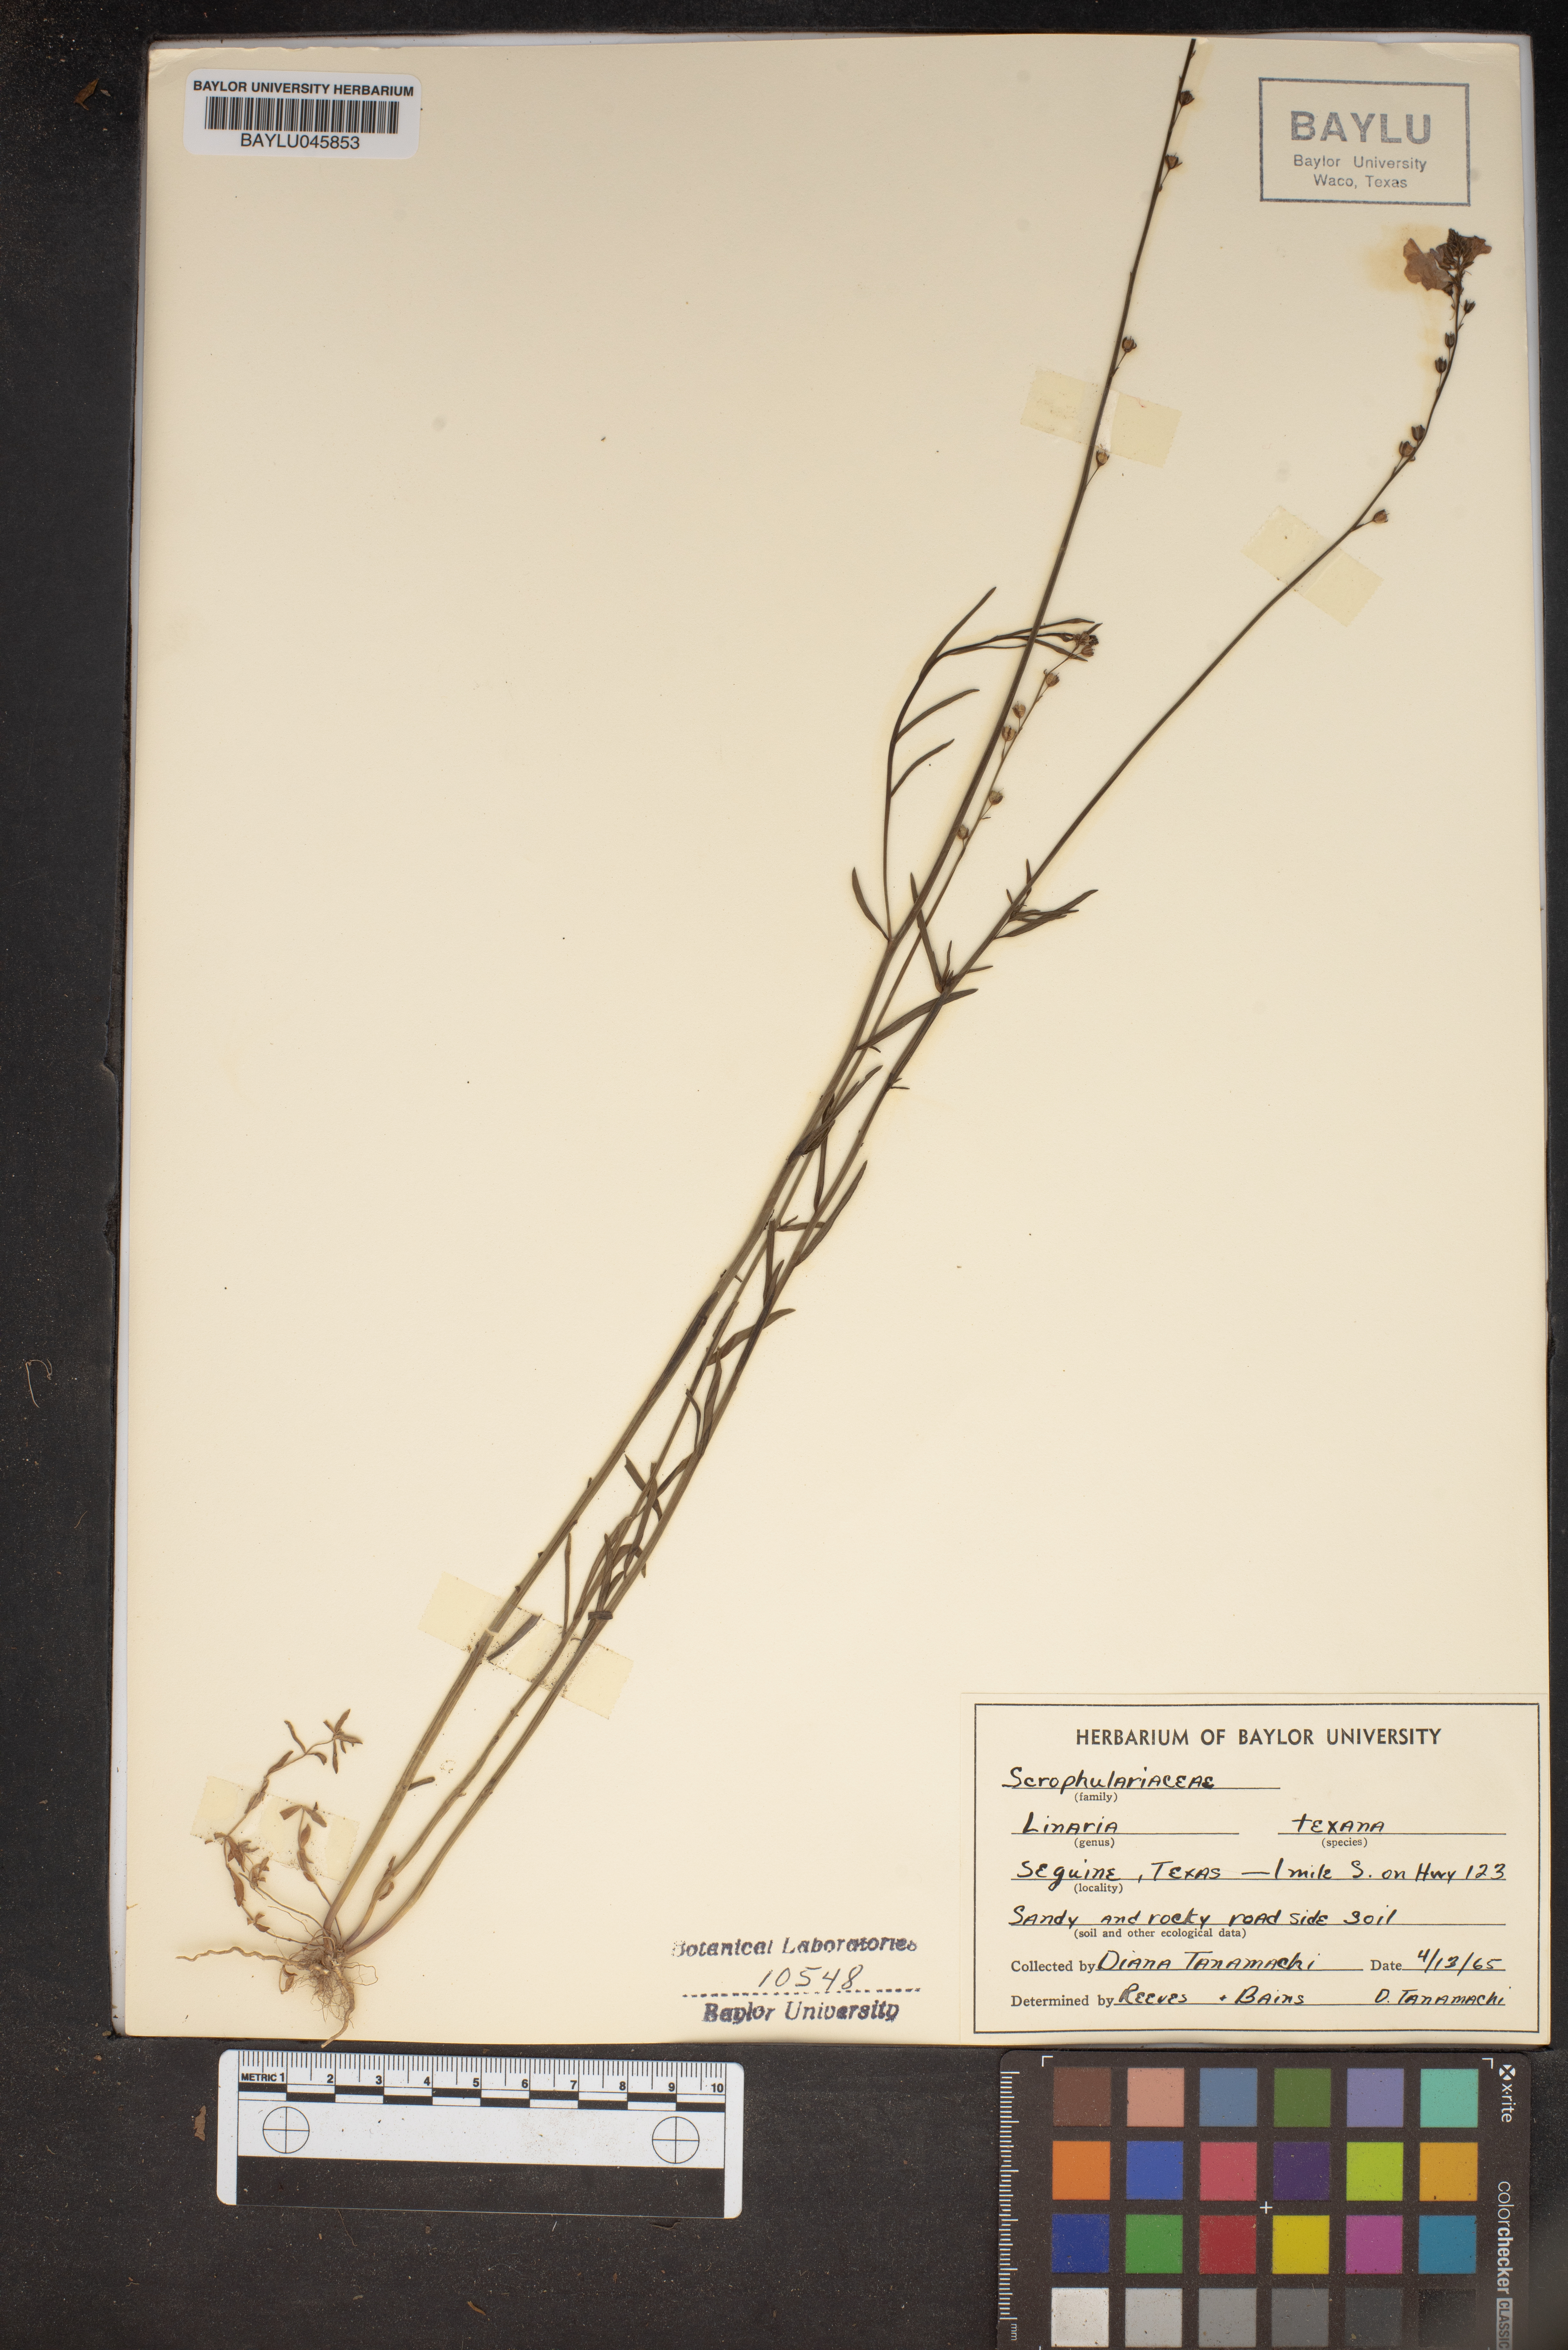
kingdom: Plantae
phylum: Tracheophyta
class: Magnoliopsida
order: Lamiales
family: Plantaginaceae
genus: Nuttallanthus
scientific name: Nuttallanthus texanus
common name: Texas toadflax
